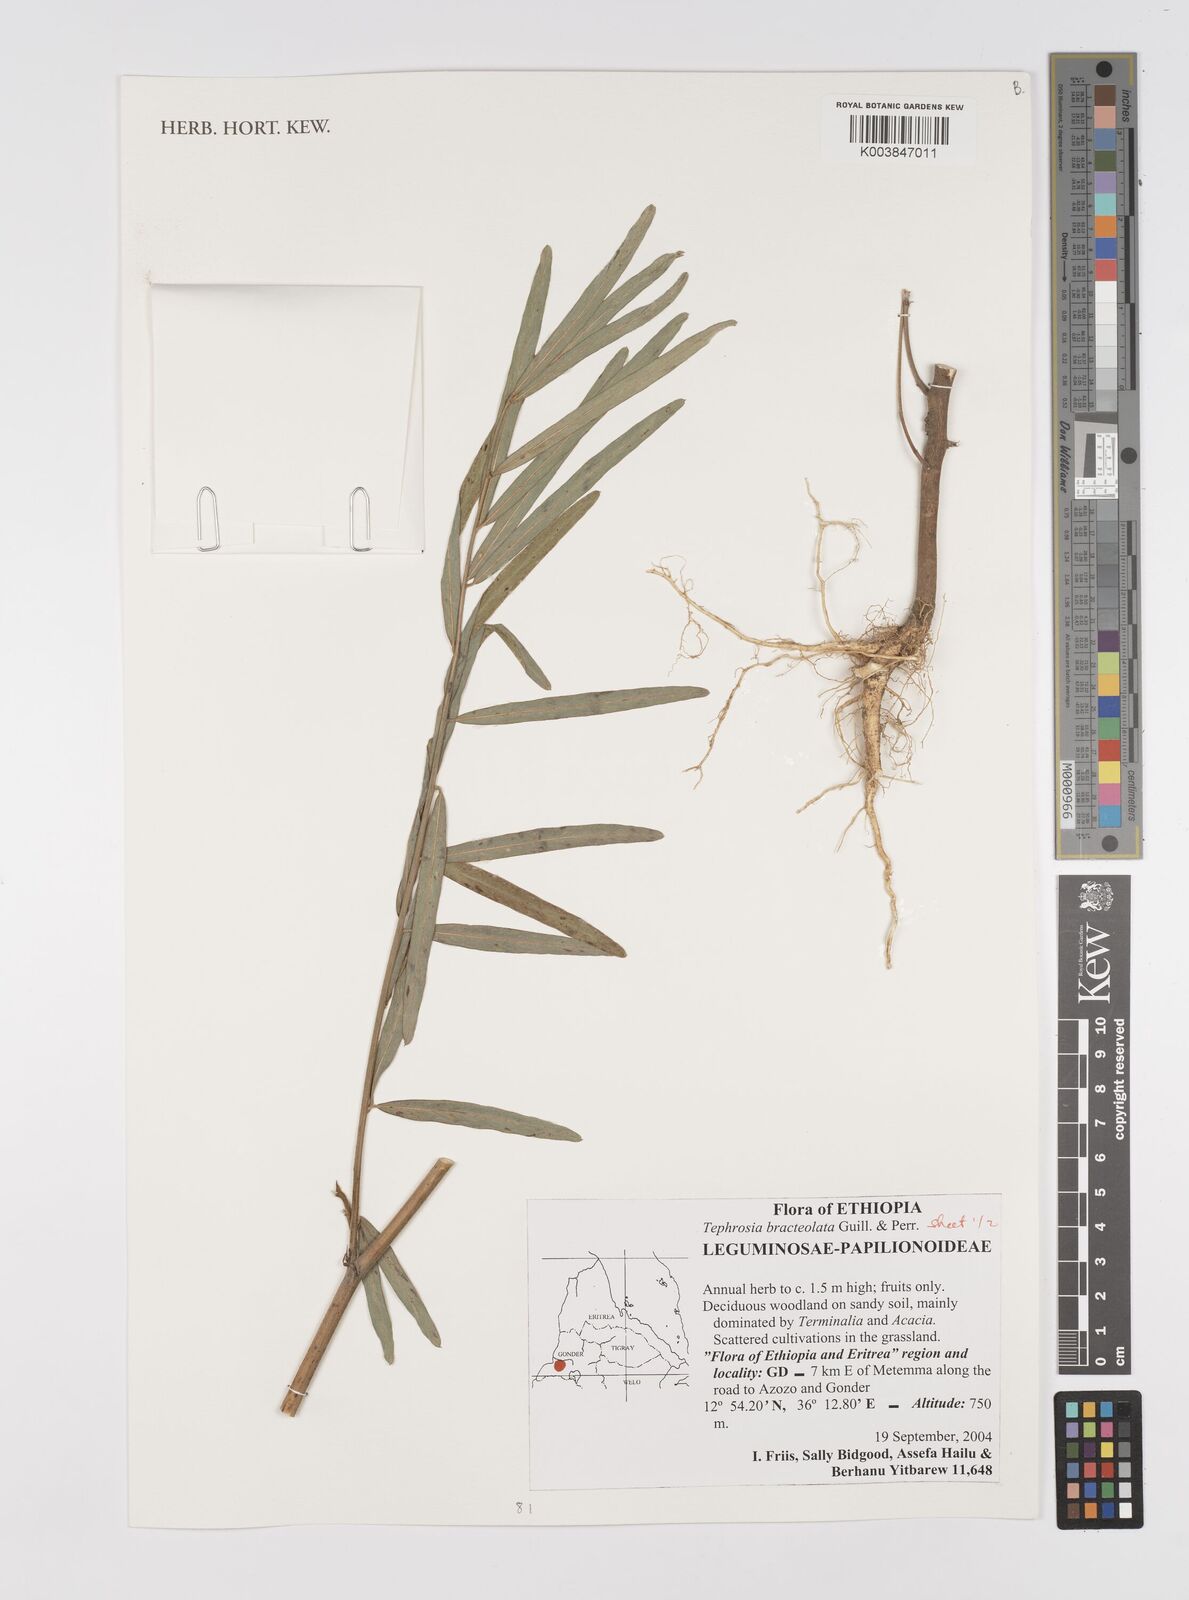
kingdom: Plantae
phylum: Tracheophyta
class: Magnoliopsida
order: Fabales
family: Fabaceae
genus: Tephrosia
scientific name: Tephrosia bracteolata
